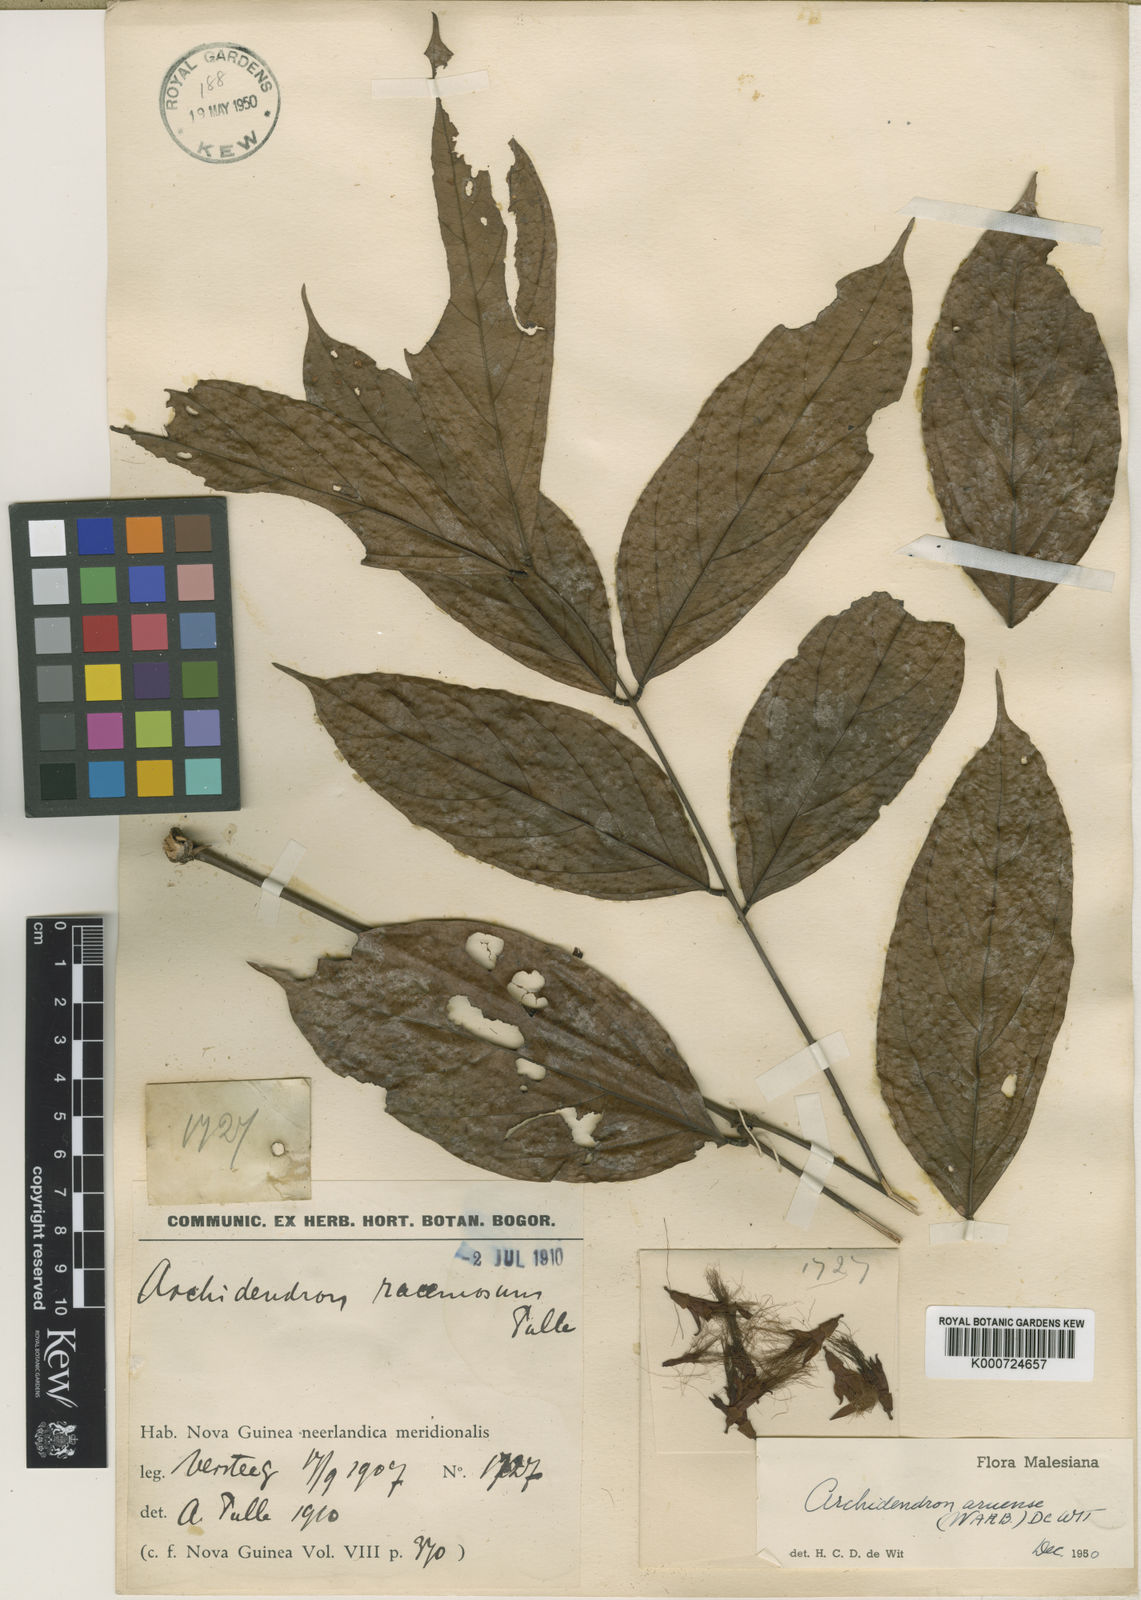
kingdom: Plantae
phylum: Tracheophyta
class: Magnoliopsida
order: Fabales
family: Fabaceae
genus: Archidendron
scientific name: Archidendron aruense
